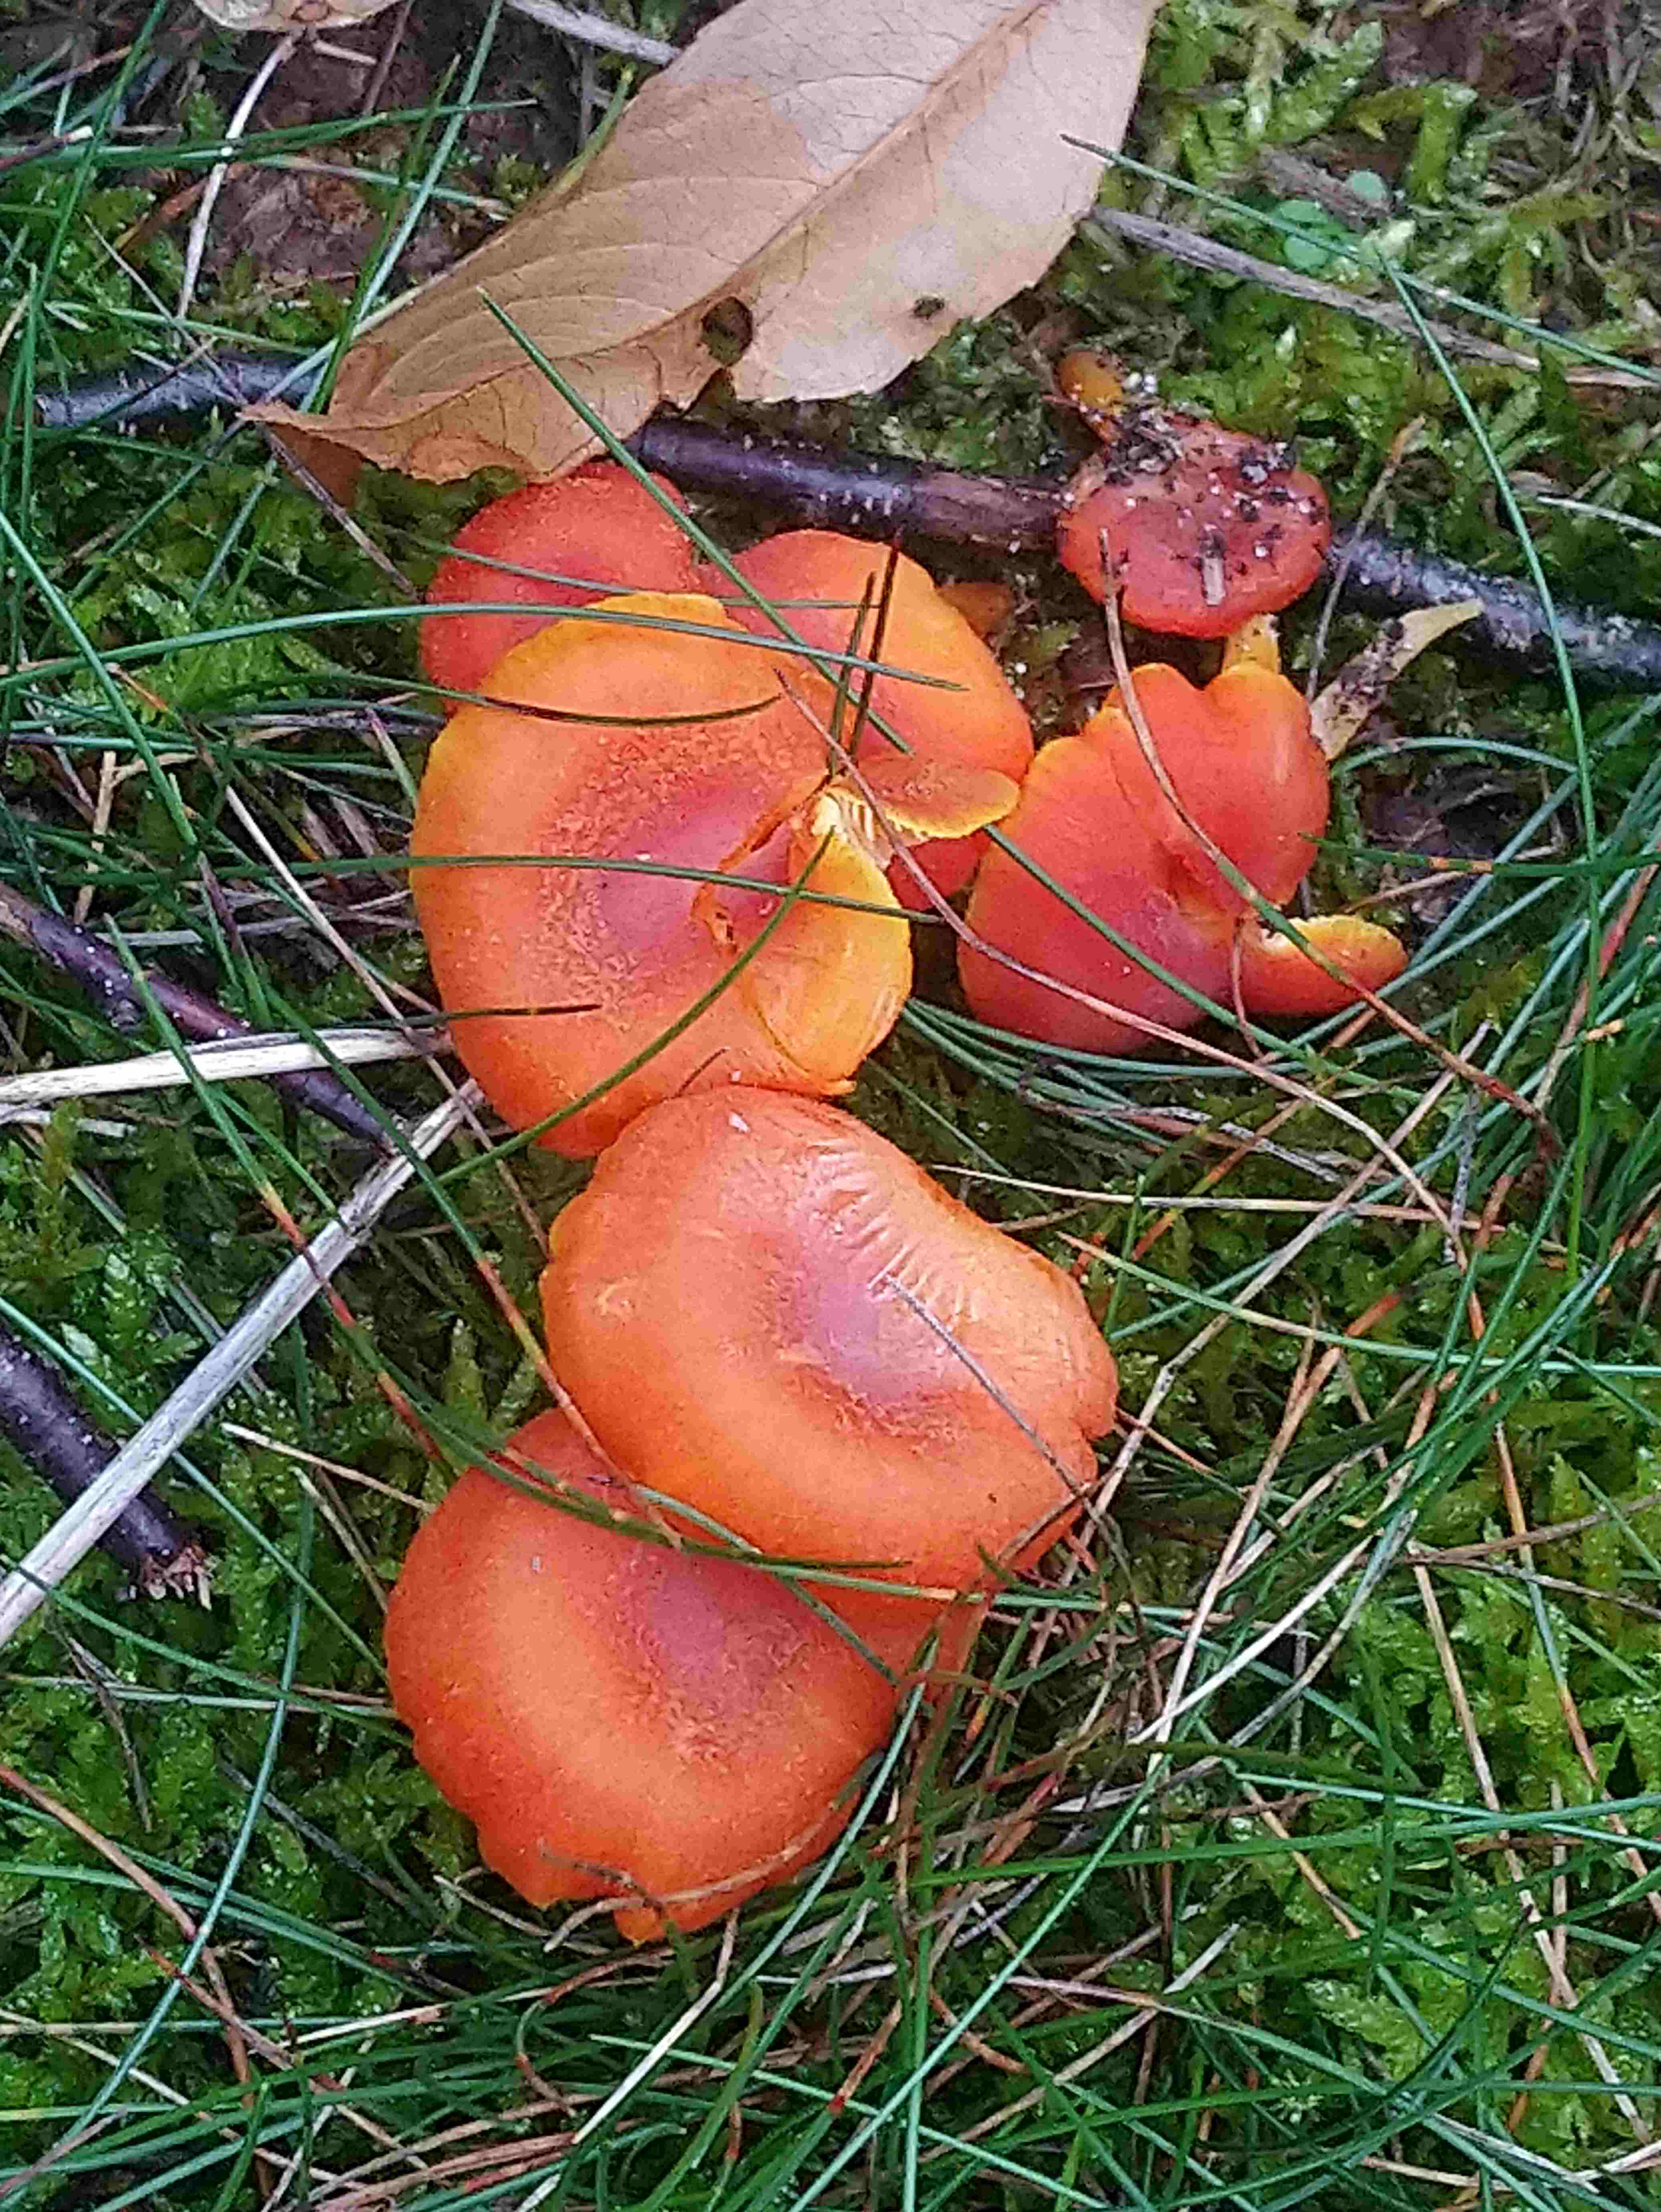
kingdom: Fungi
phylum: Basidiomycota
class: Agaricomycetes
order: Agaricales
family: Hygrophoraceae
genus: Hygrocybe
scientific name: Hygrocybe miniata
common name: mønje-vokshat
